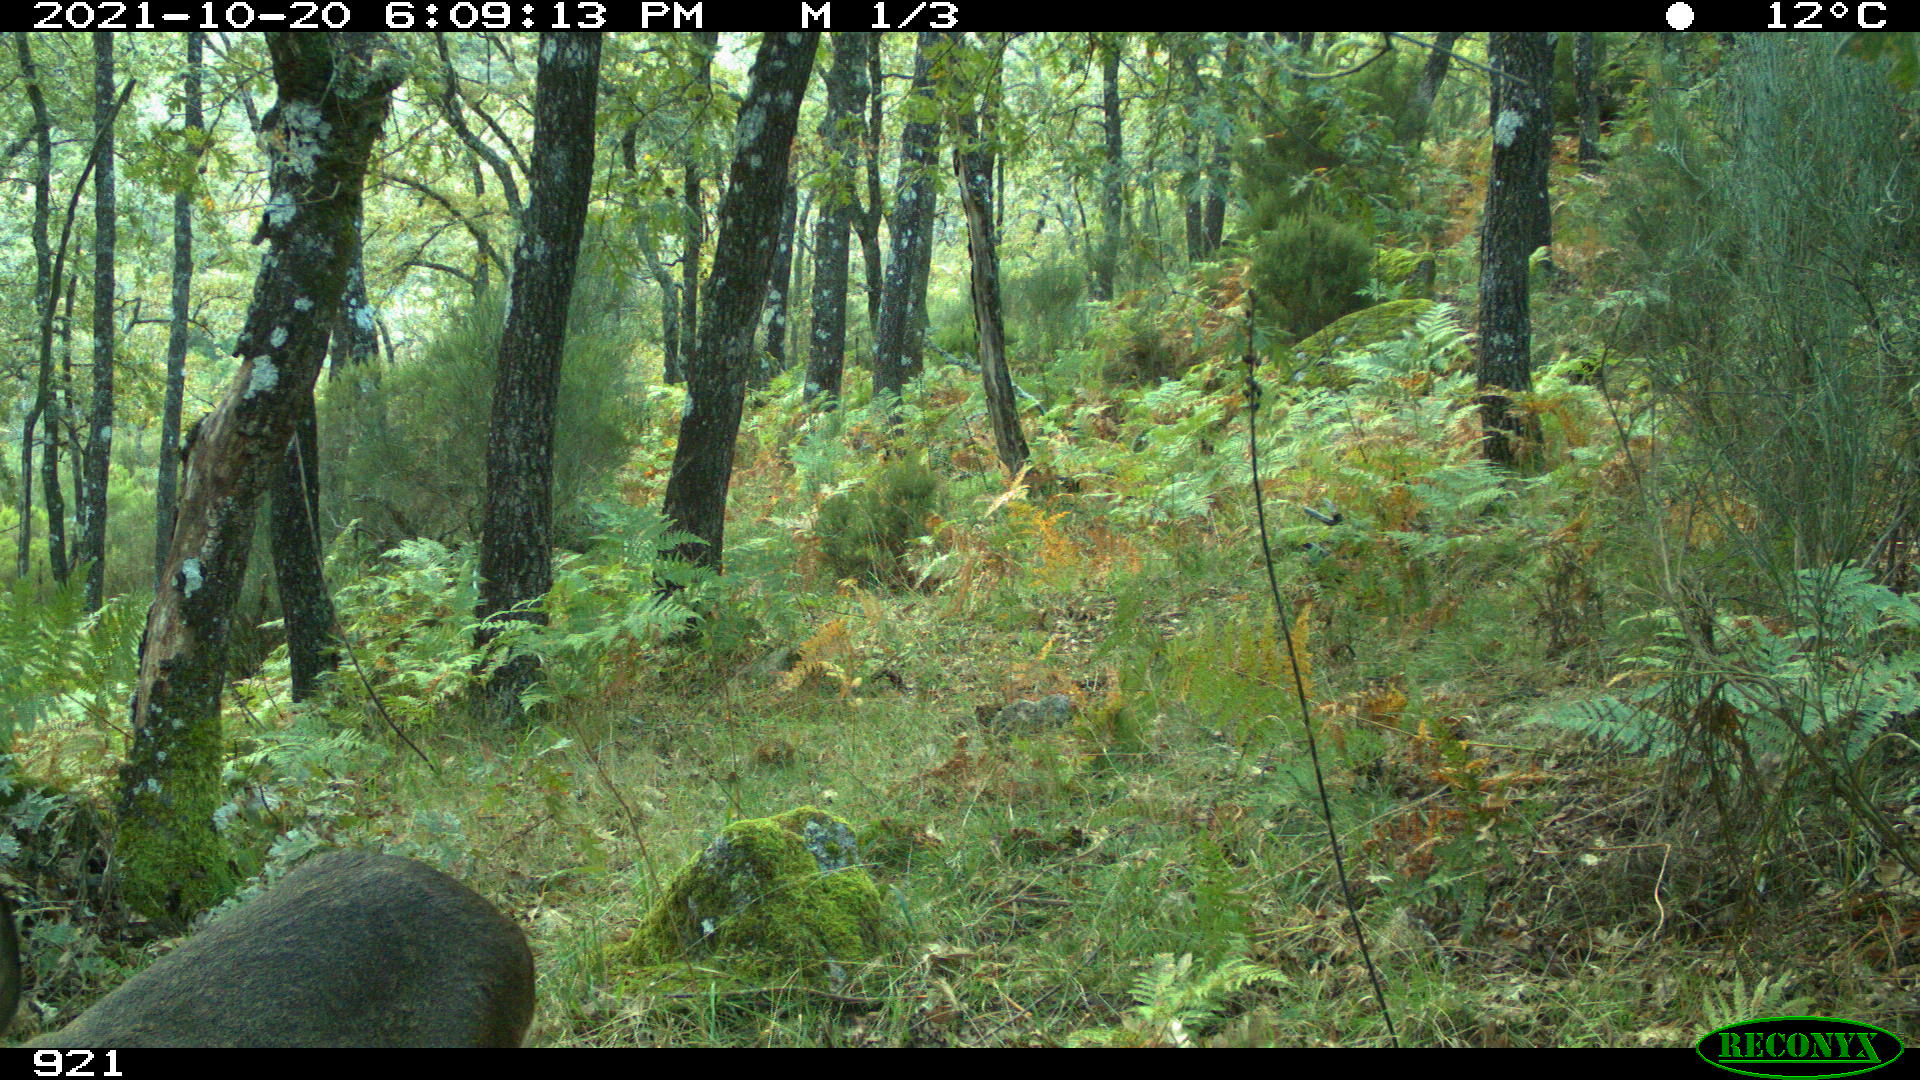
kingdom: Animalia
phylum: Chordata
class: Mammalia
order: Artiodactyla
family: Cervidae
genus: Capreolus
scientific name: Capreolus capreolus
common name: Western roe deer
